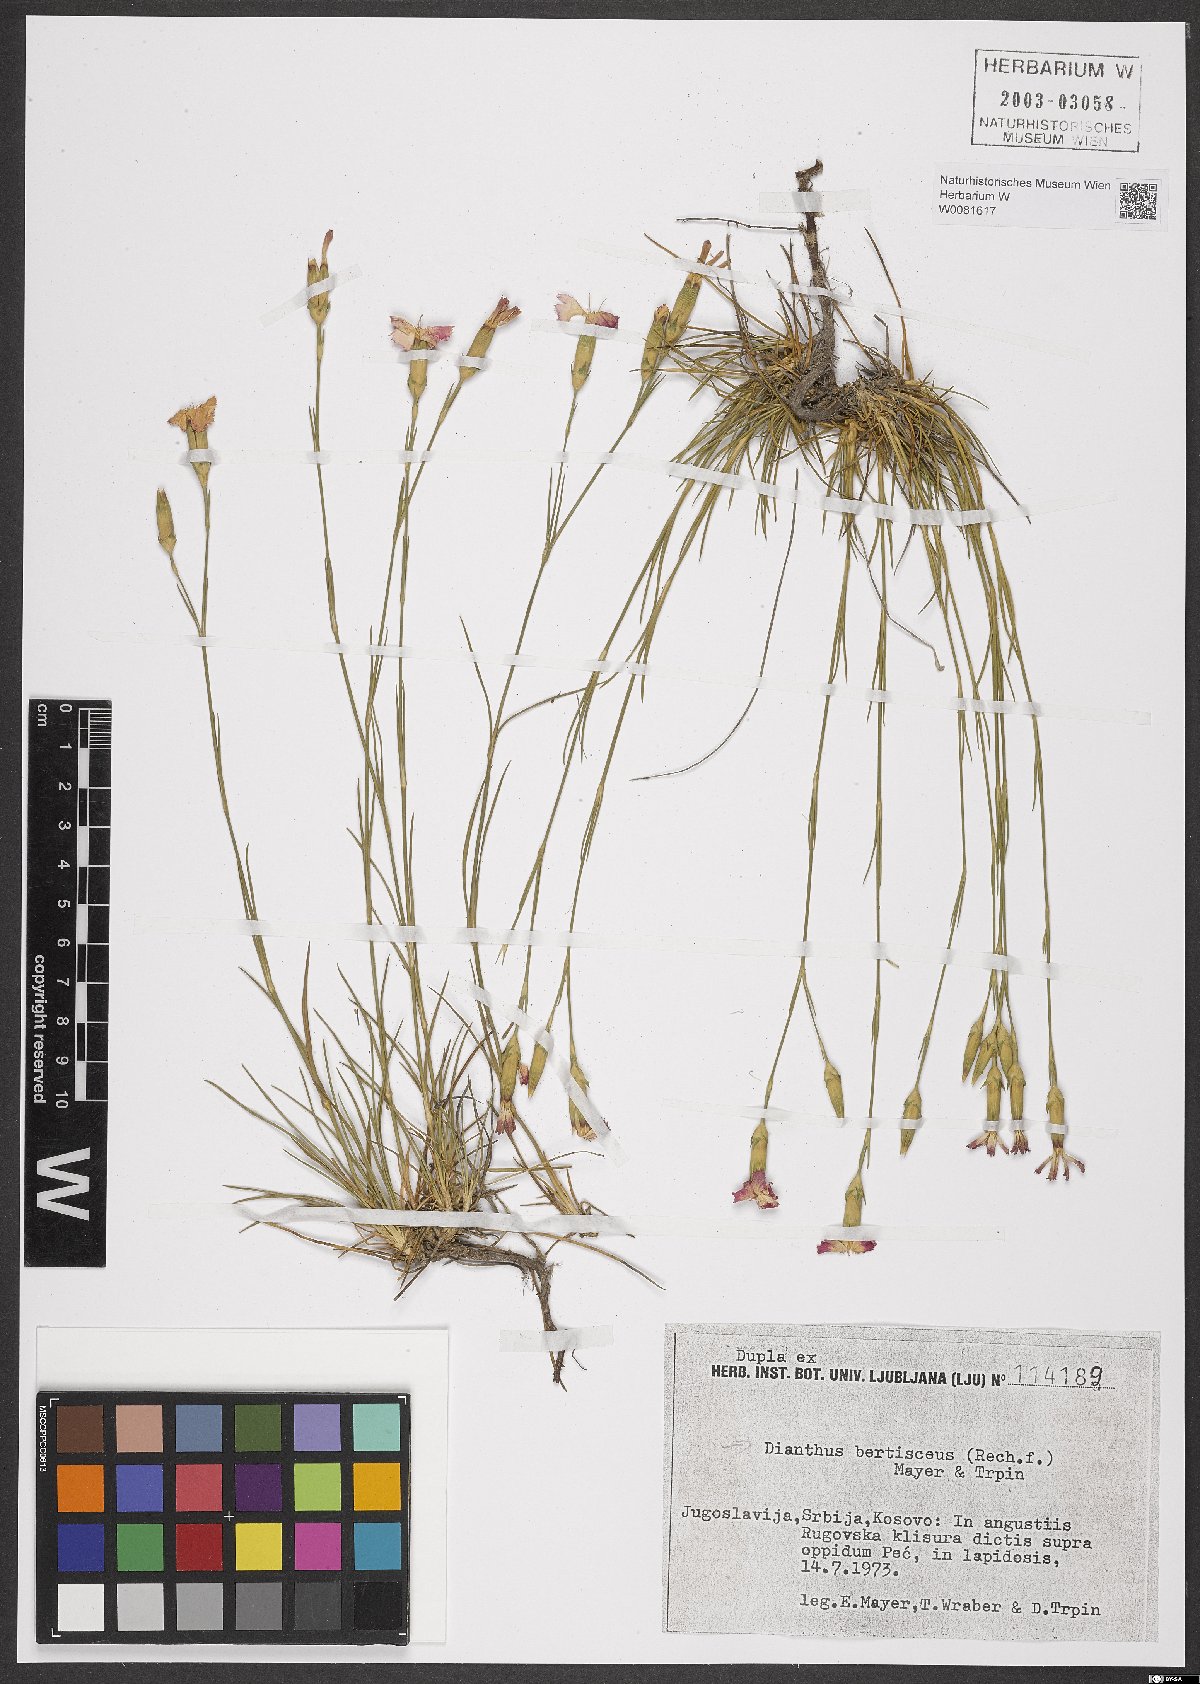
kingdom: Plantae
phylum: Tracheophyta
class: Magnoliopsida
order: Caryophyllales
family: Caryophyllaceae
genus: Dianthus
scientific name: Dianthus sylvestris
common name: Wood pink
